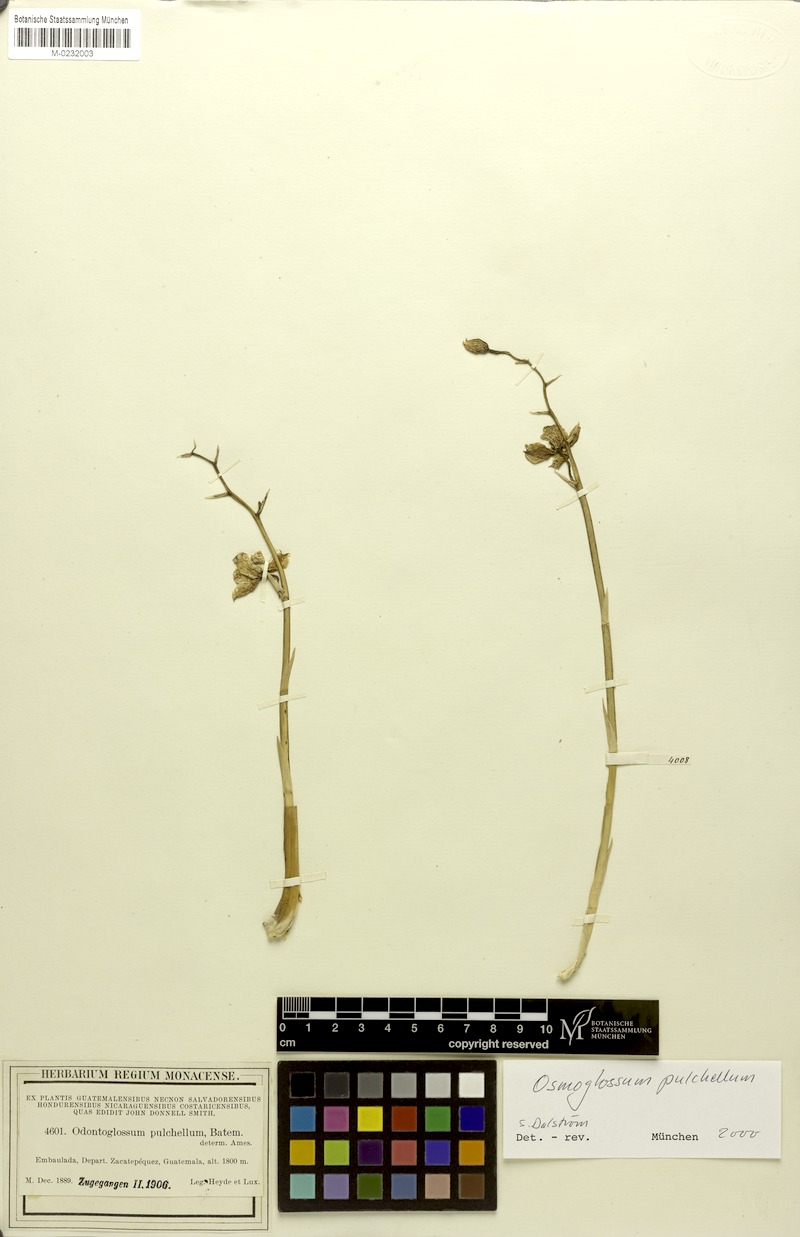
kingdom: Plantae
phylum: Tracheophyta
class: Liliopsida
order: Asparagales
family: Orchidaceae
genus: Cuitlauzina
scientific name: Cuitlauzina pulchella
